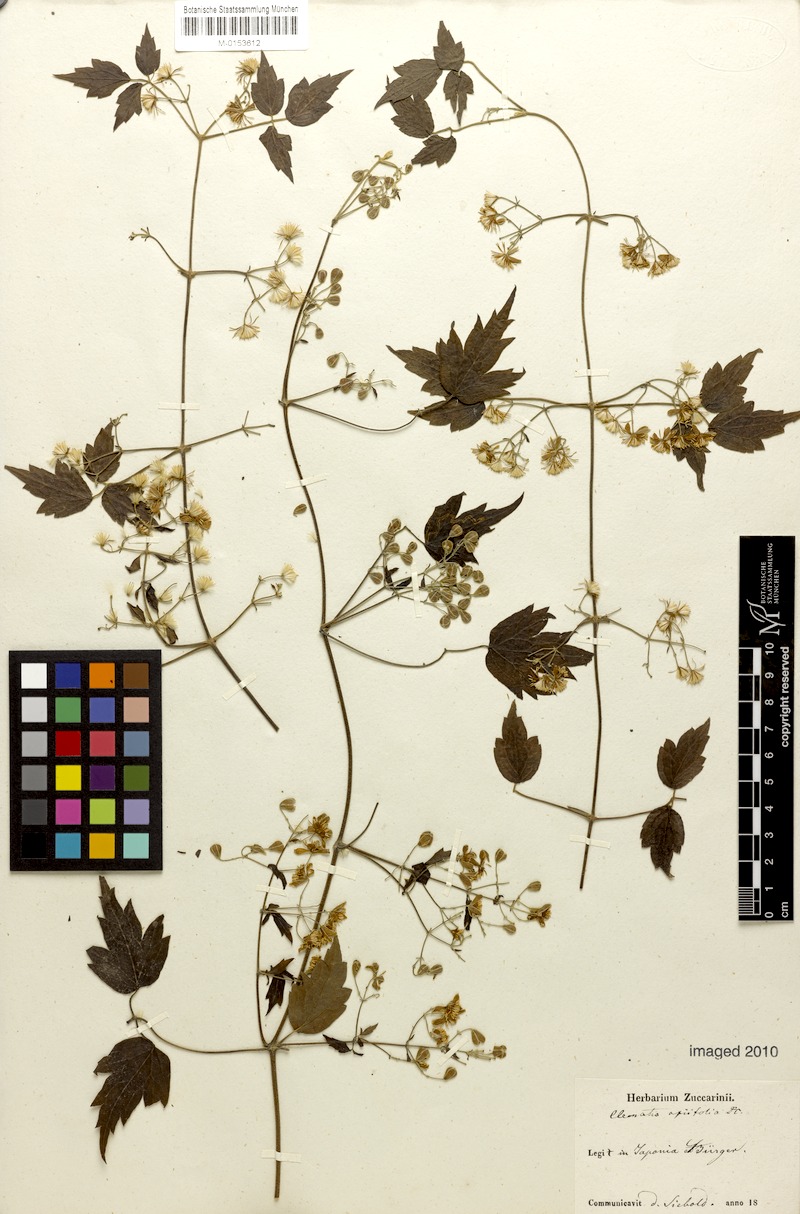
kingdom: Plantae
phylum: Tracheophyta
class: Magnoliopsida
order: Ranunculales
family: Ranunculaceae
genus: Clematis
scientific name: Clematis apiifolia
